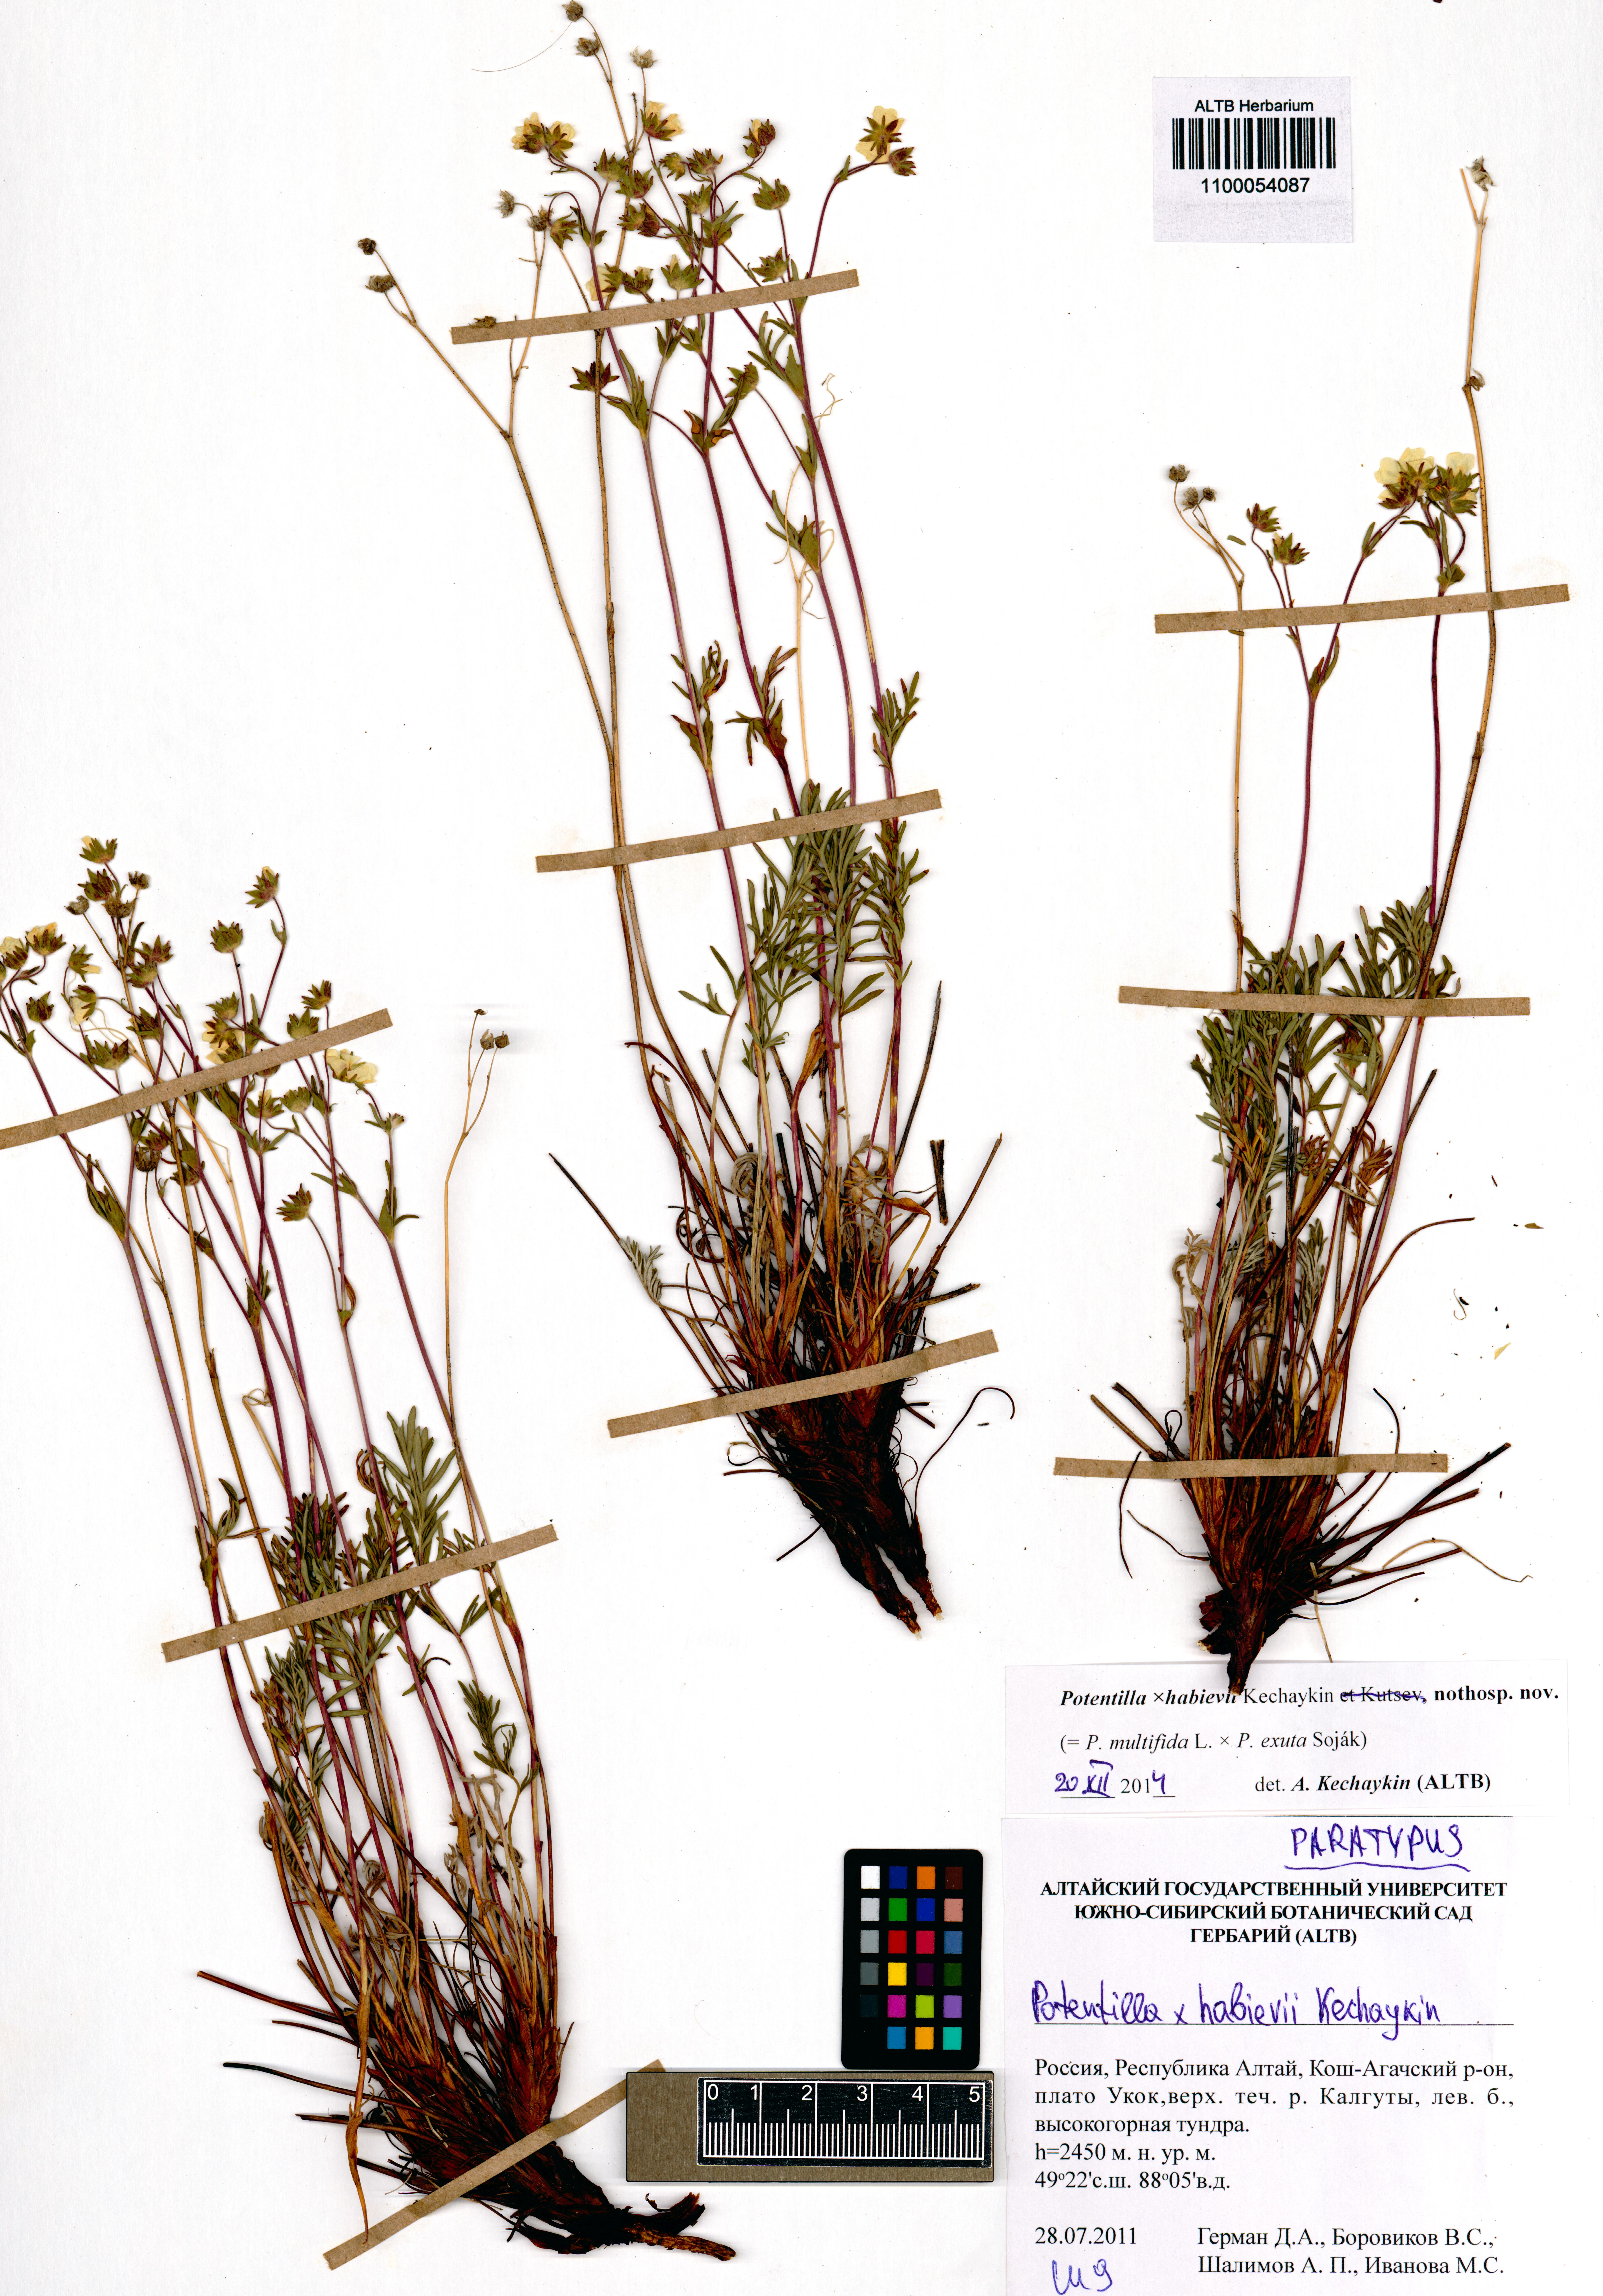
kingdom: Plantae
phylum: Tracheophyta
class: Magnoliopsida
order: Rosales
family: Rosaceae
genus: Potentilla
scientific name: Potentilla habievii
